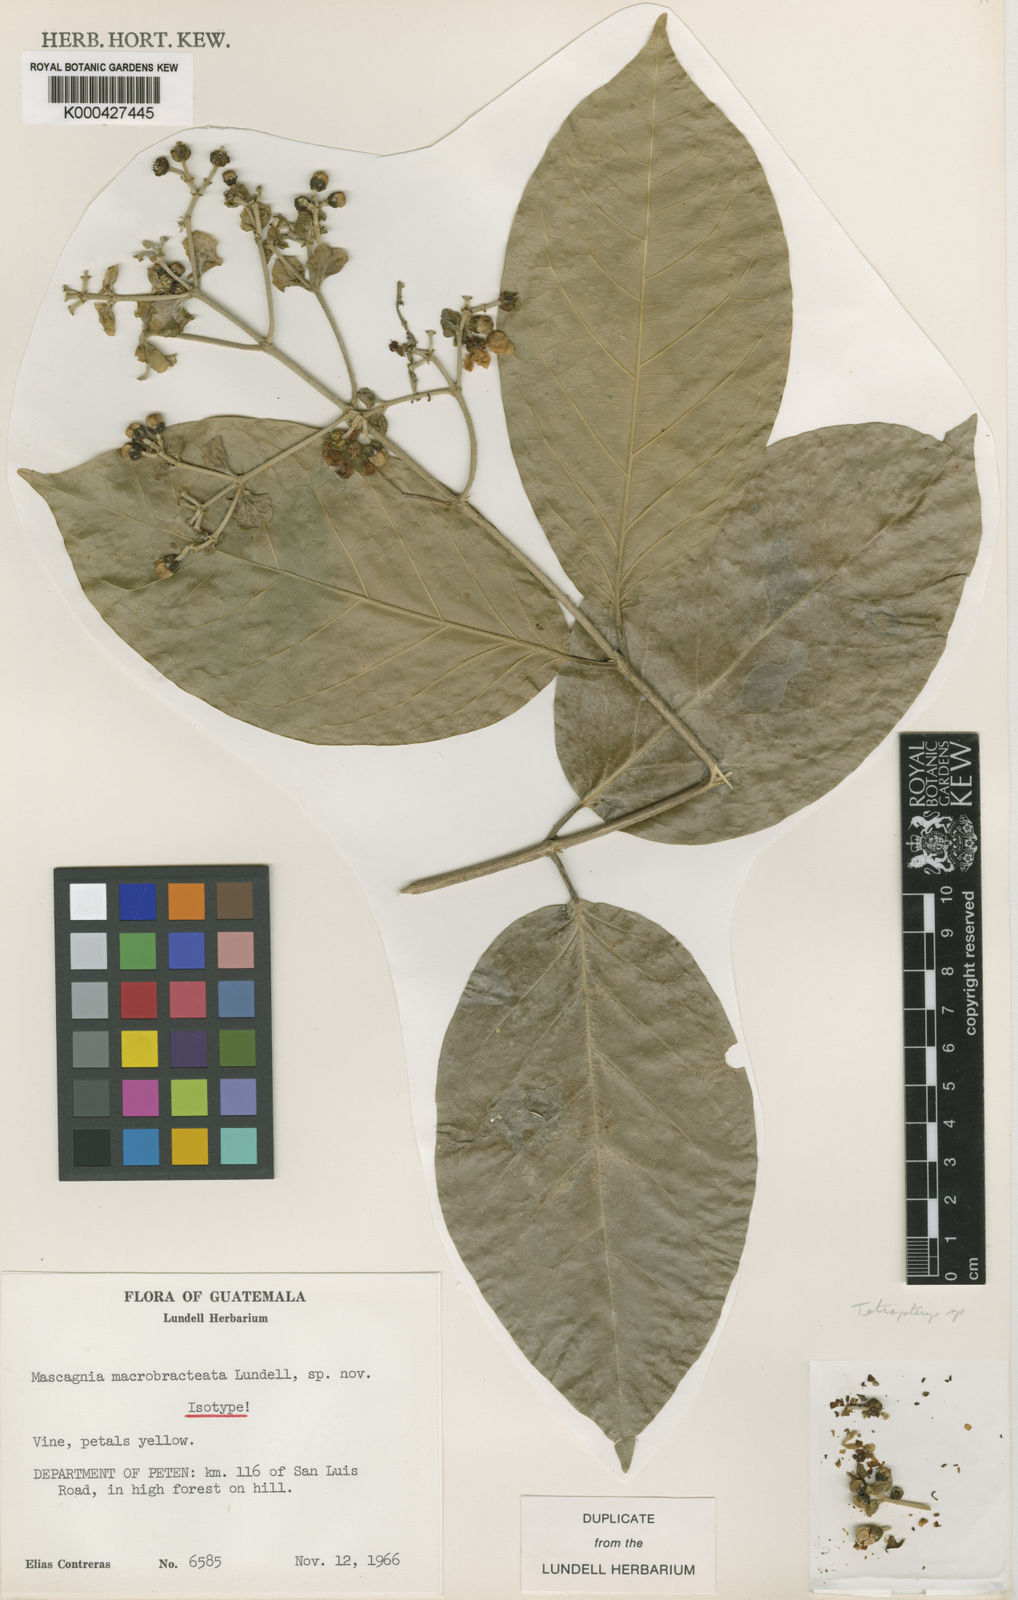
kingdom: Plantae
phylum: Tracheophyta
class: Magnoliopsida
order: Malpighiales
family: Malpighiaceae
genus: Tetrapterys
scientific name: Tetrapterys tinifolia
